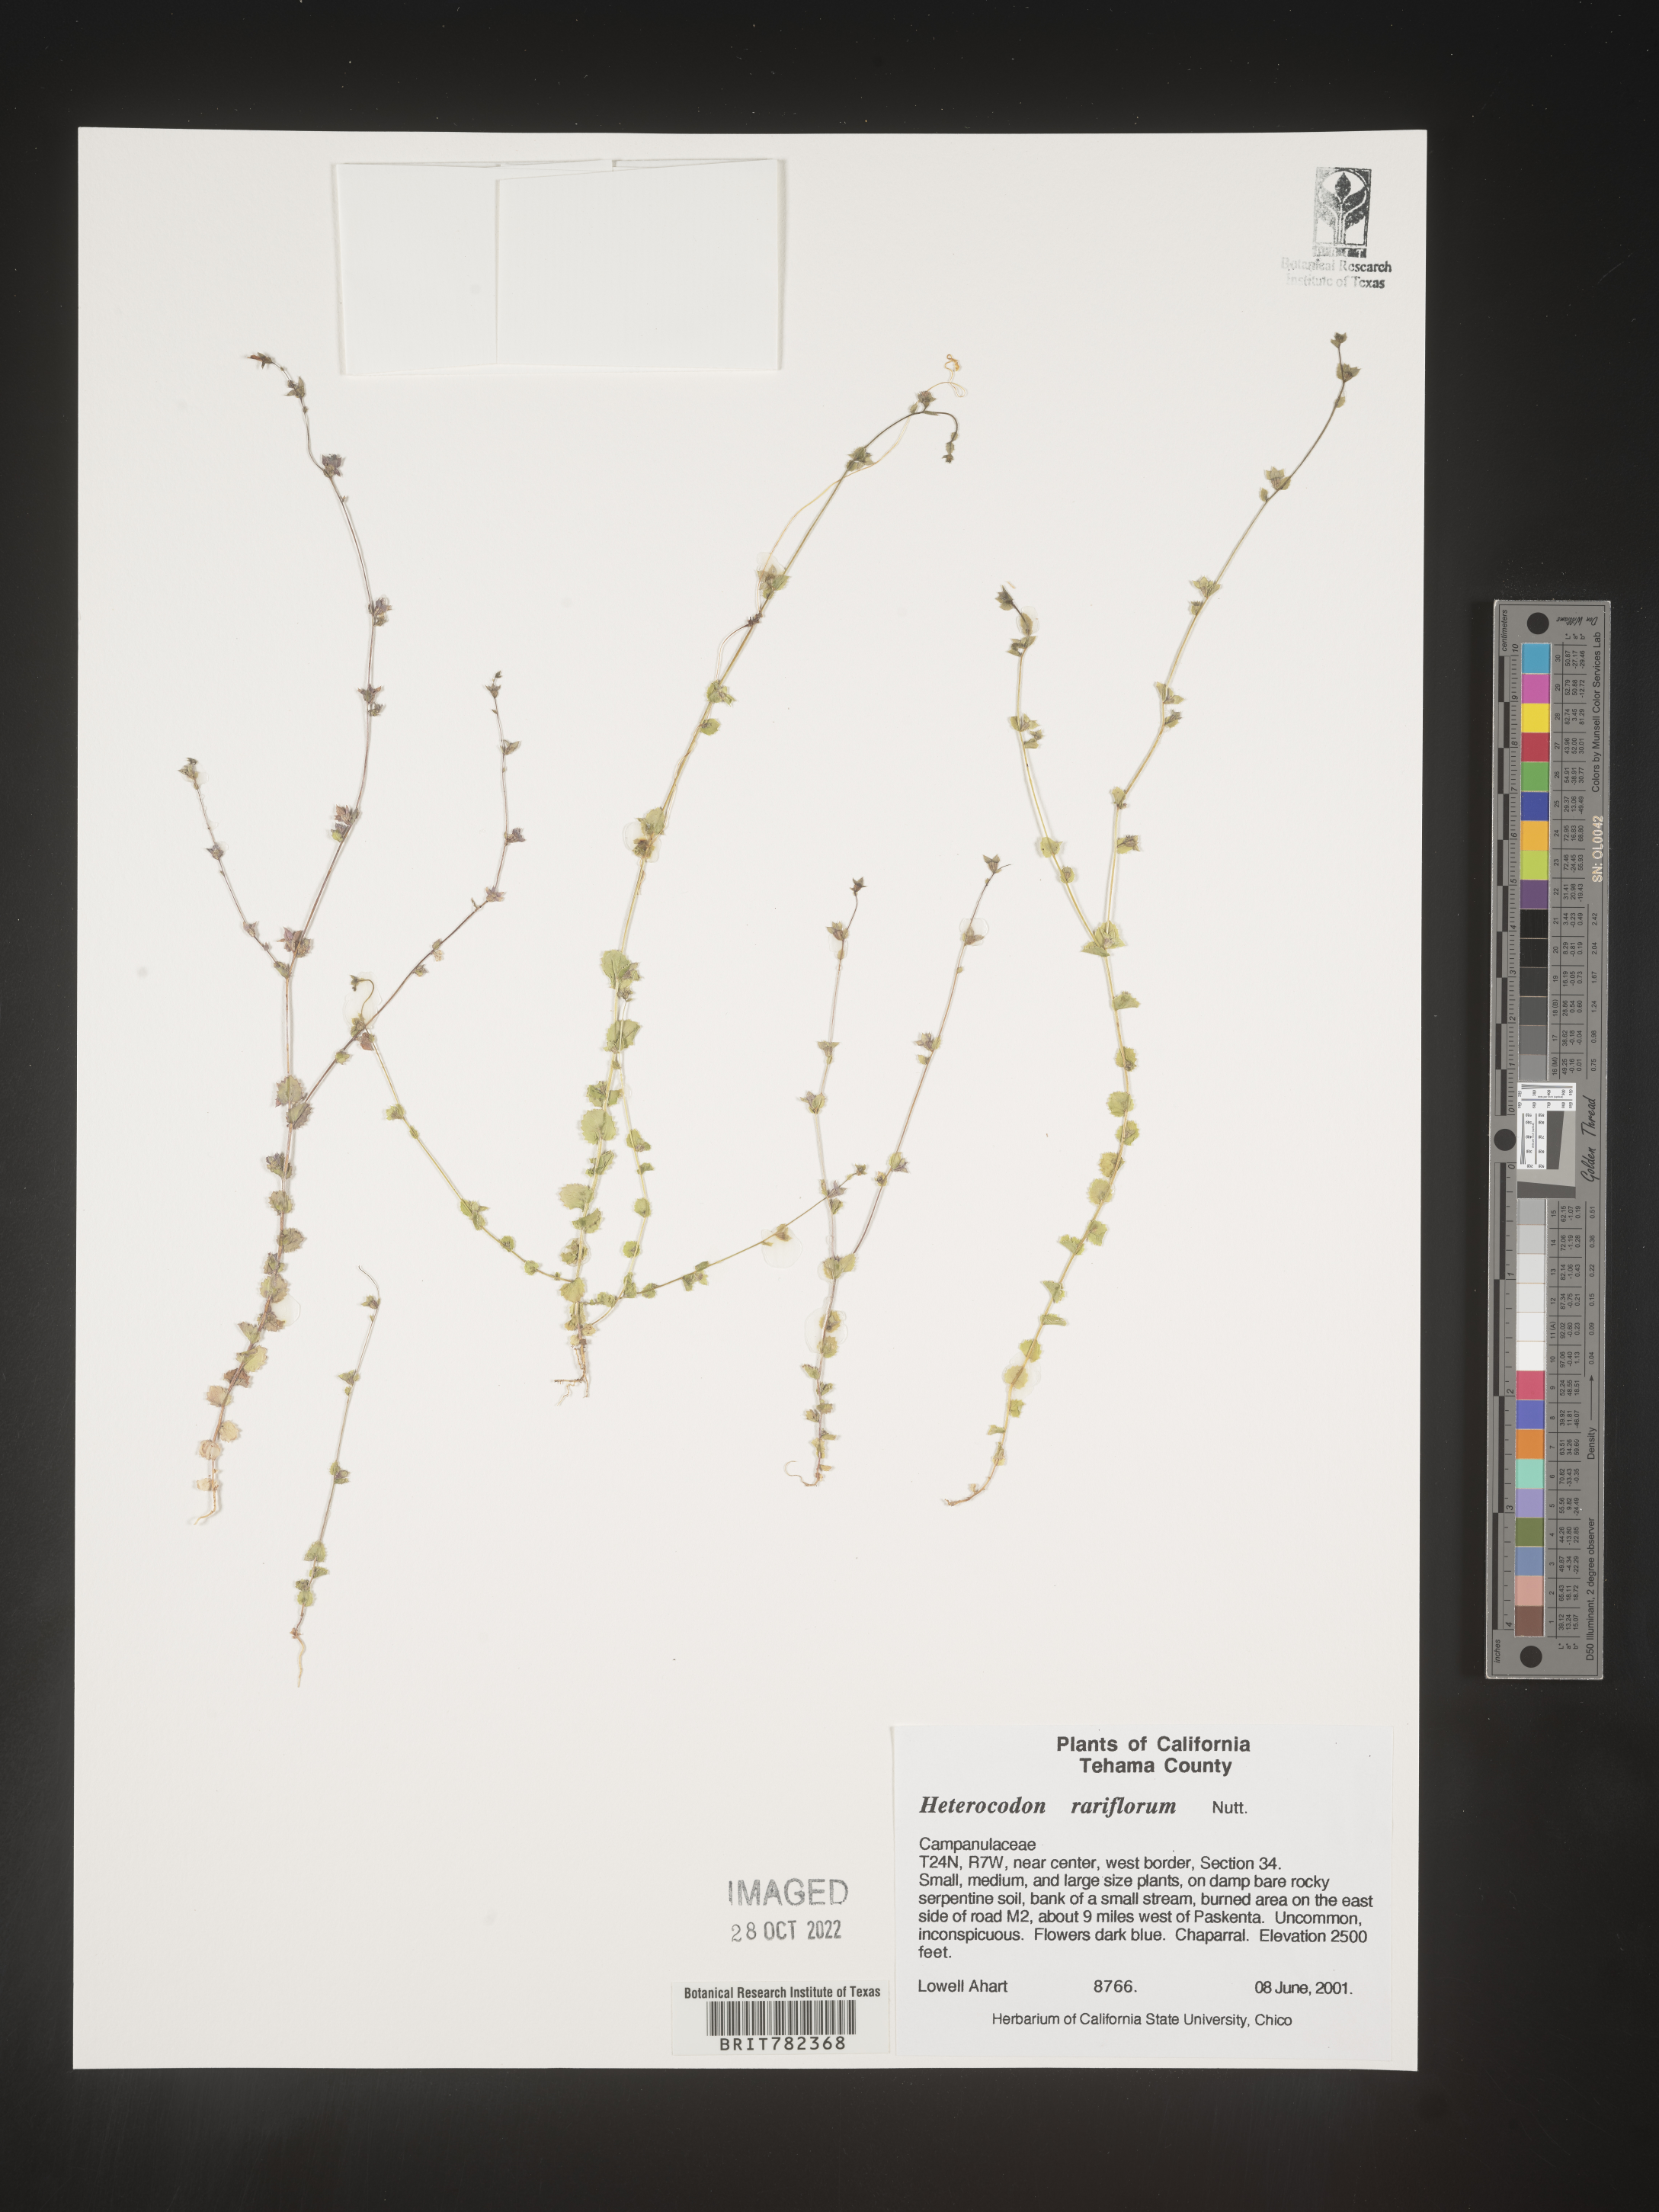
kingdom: Plantae
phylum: Tracheophyta
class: Magnoliopsida
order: Asterales
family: Campanulaceae
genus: Heterocodon
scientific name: Heterocodon
